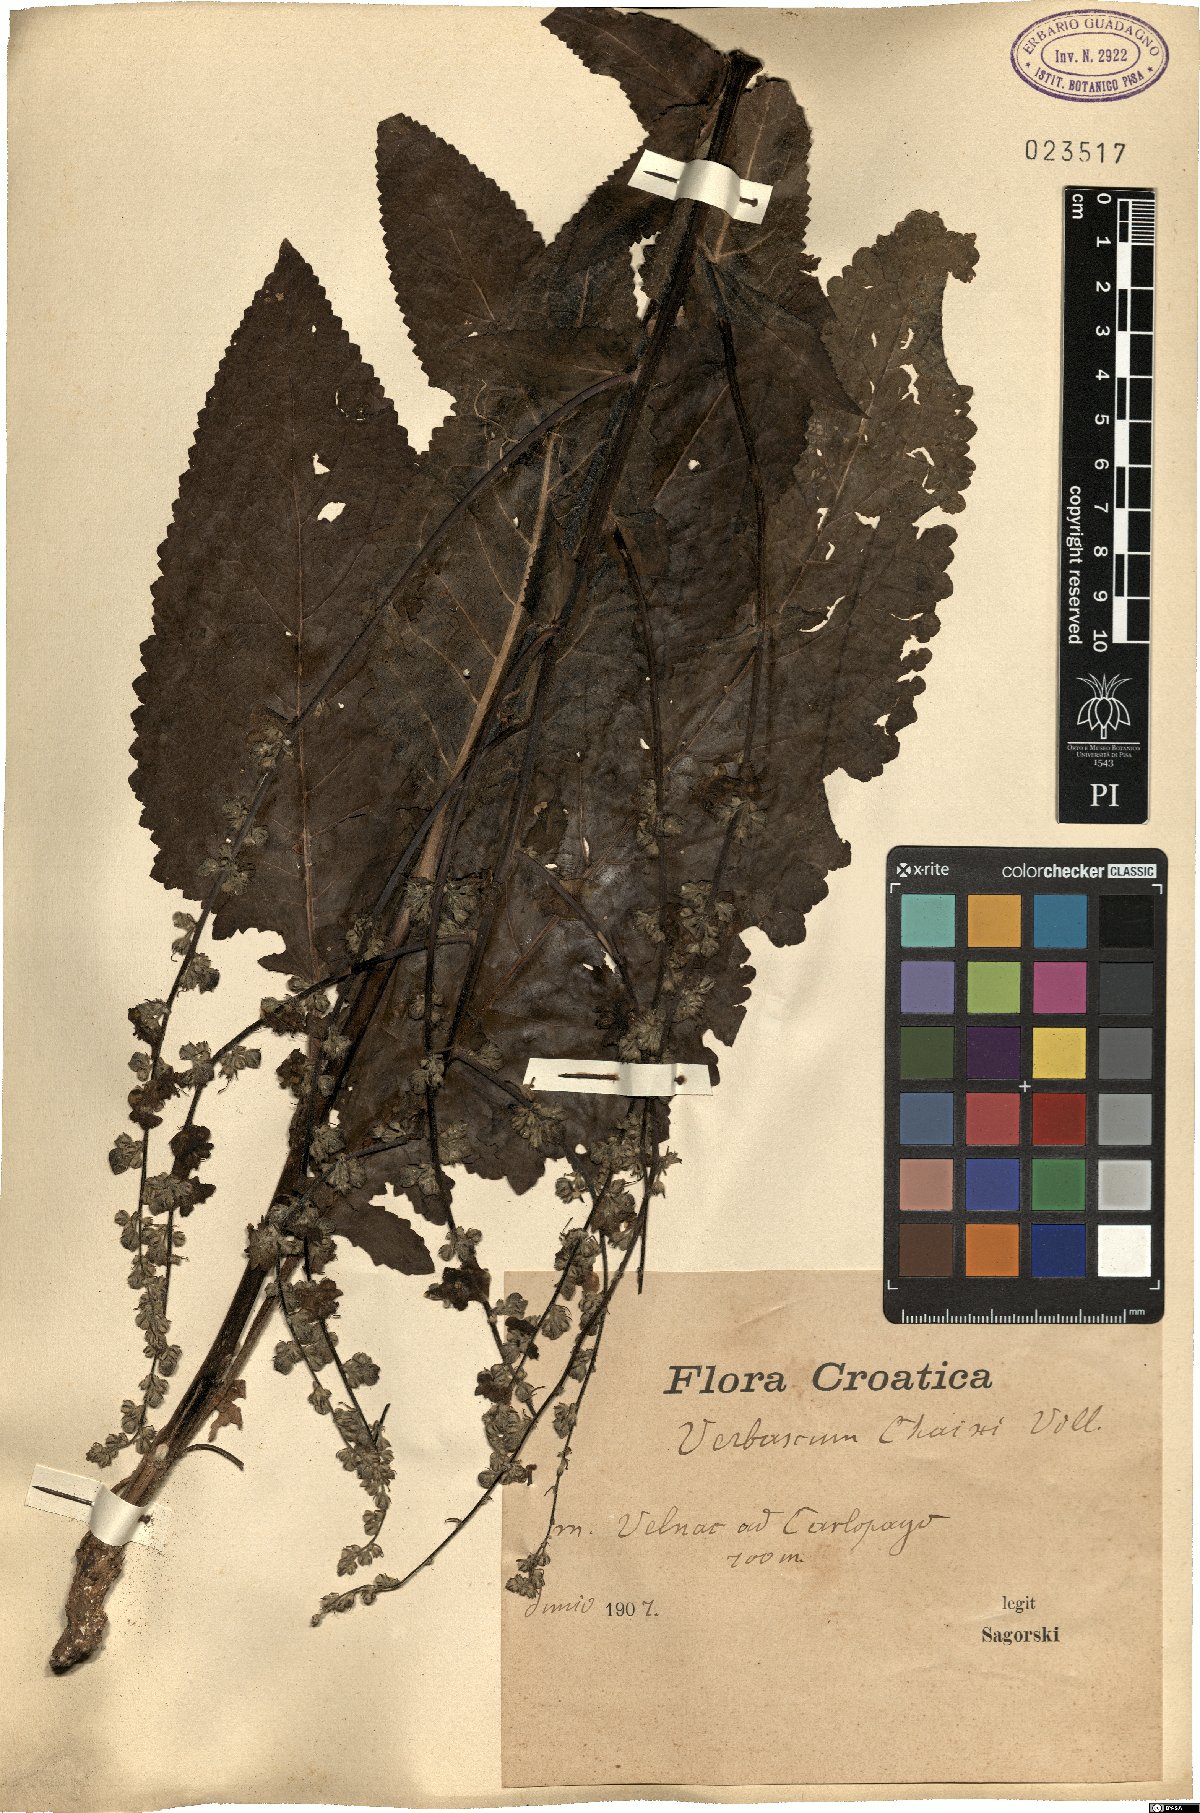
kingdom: Plantae
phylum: Tracheophyta
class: Magnoliopsida
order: Lamiales
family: Scrophulariaceae
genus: Verbascum
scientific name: Verbascum chaixii
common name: Nettle-leaved mullein
